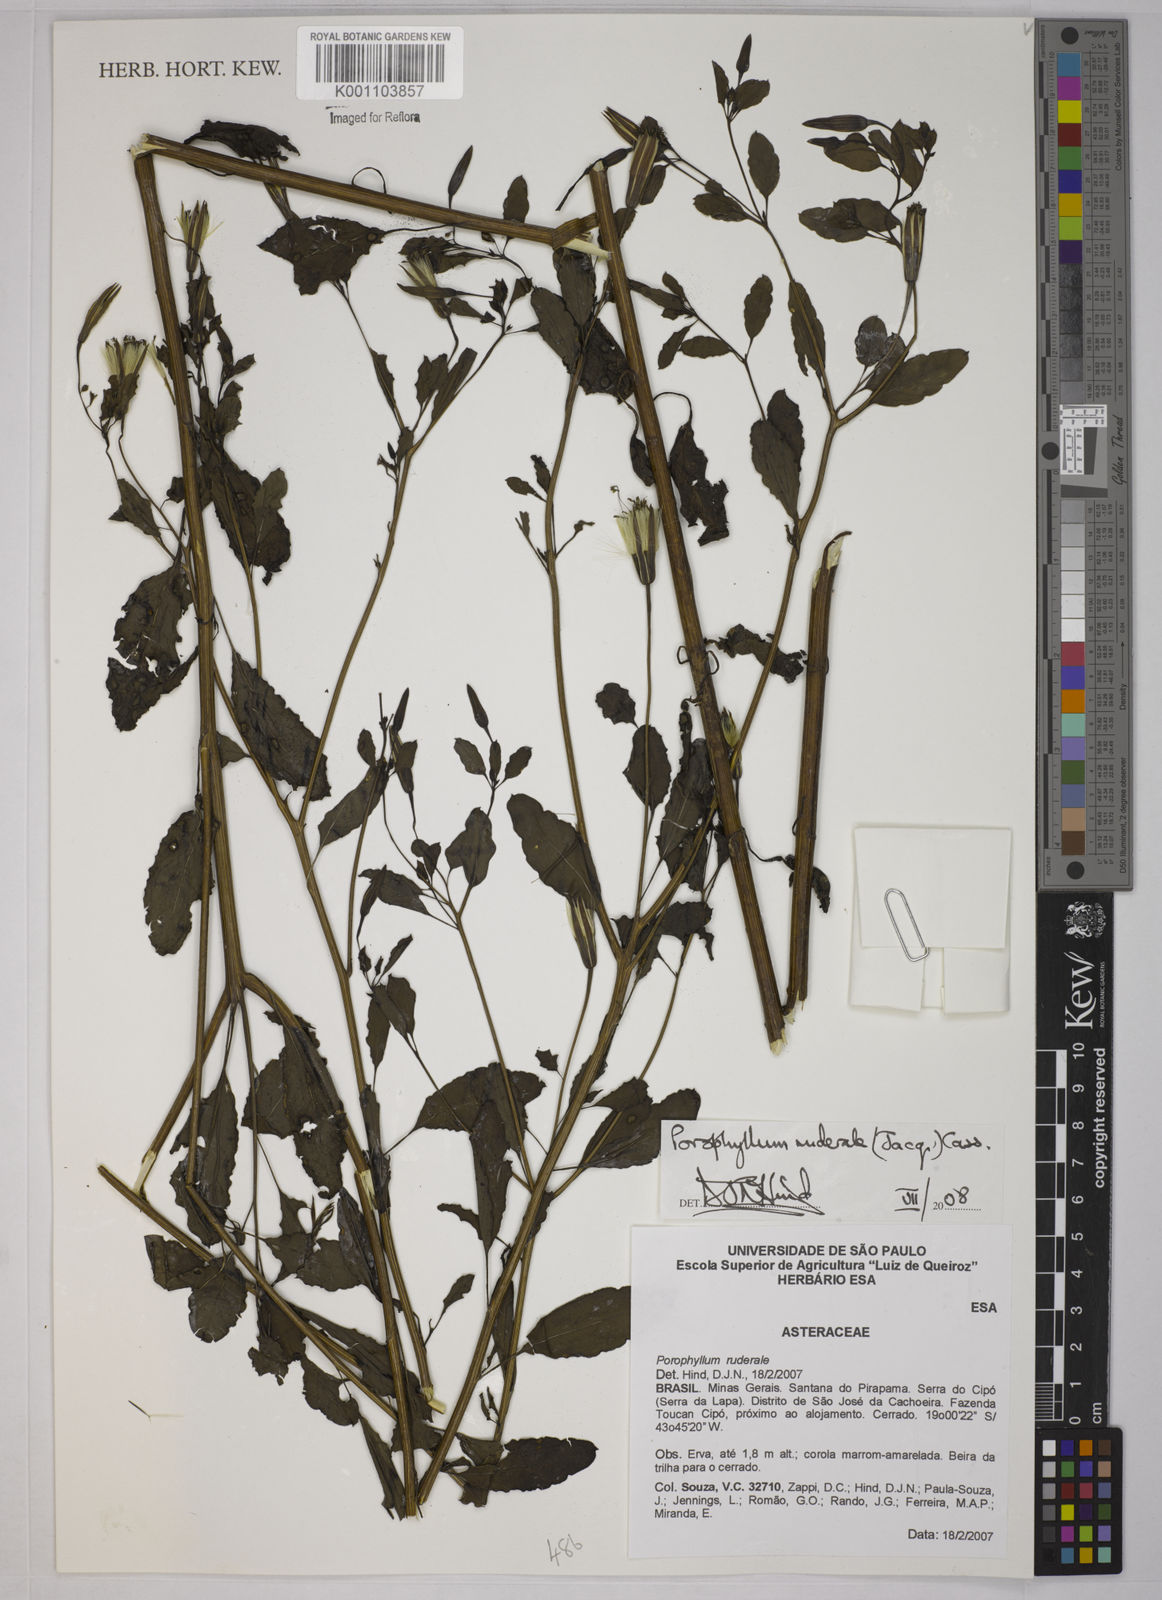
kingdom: Plantae
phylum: Tracheophyta
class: Magnoliopsida
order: Asterales
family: Asteraceae
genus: Porophyllum
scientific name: Porophyllum ruderale
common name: Yerba porosa
